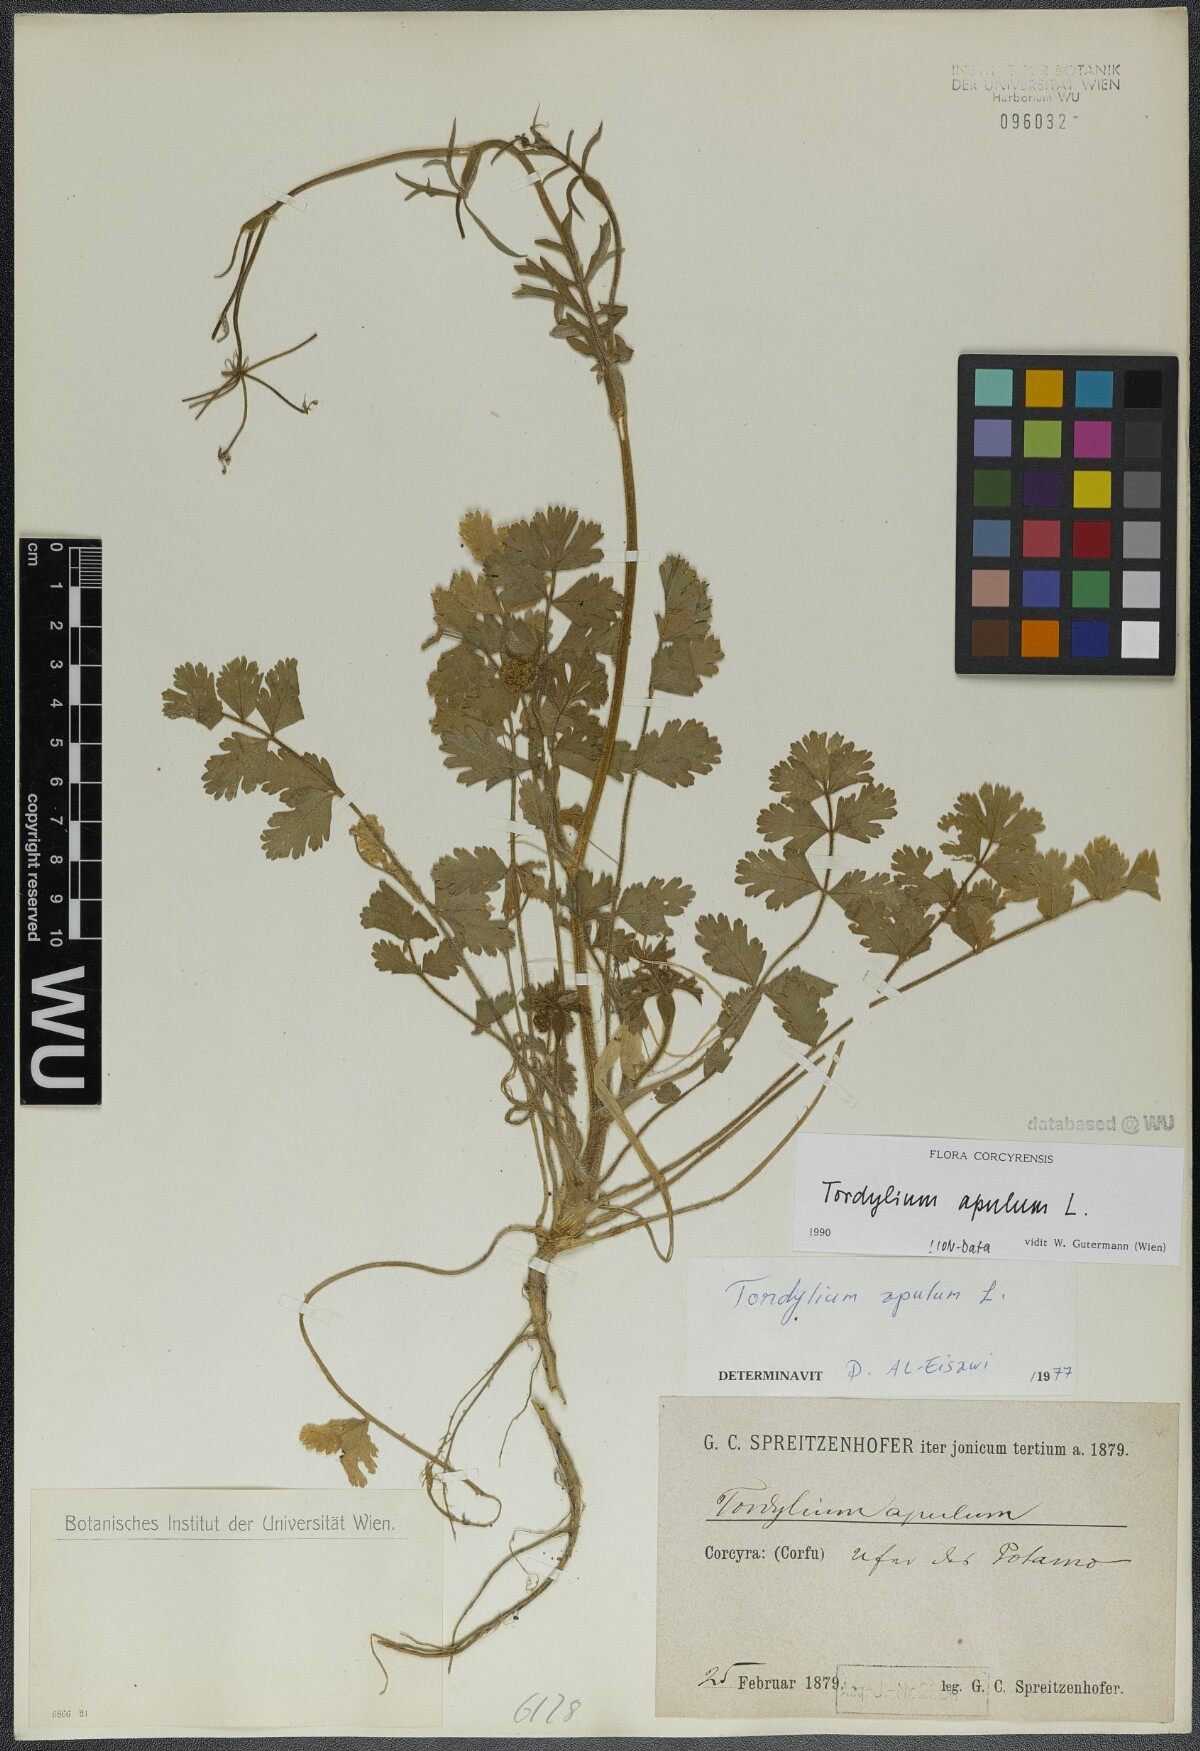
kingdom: Plantae
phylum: Tracheophyta
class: Magnoliopsida
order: Apiales
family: Apiaceae
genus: Tordylium
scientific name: Tordylium apulum
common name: Mediterranean hartwort
